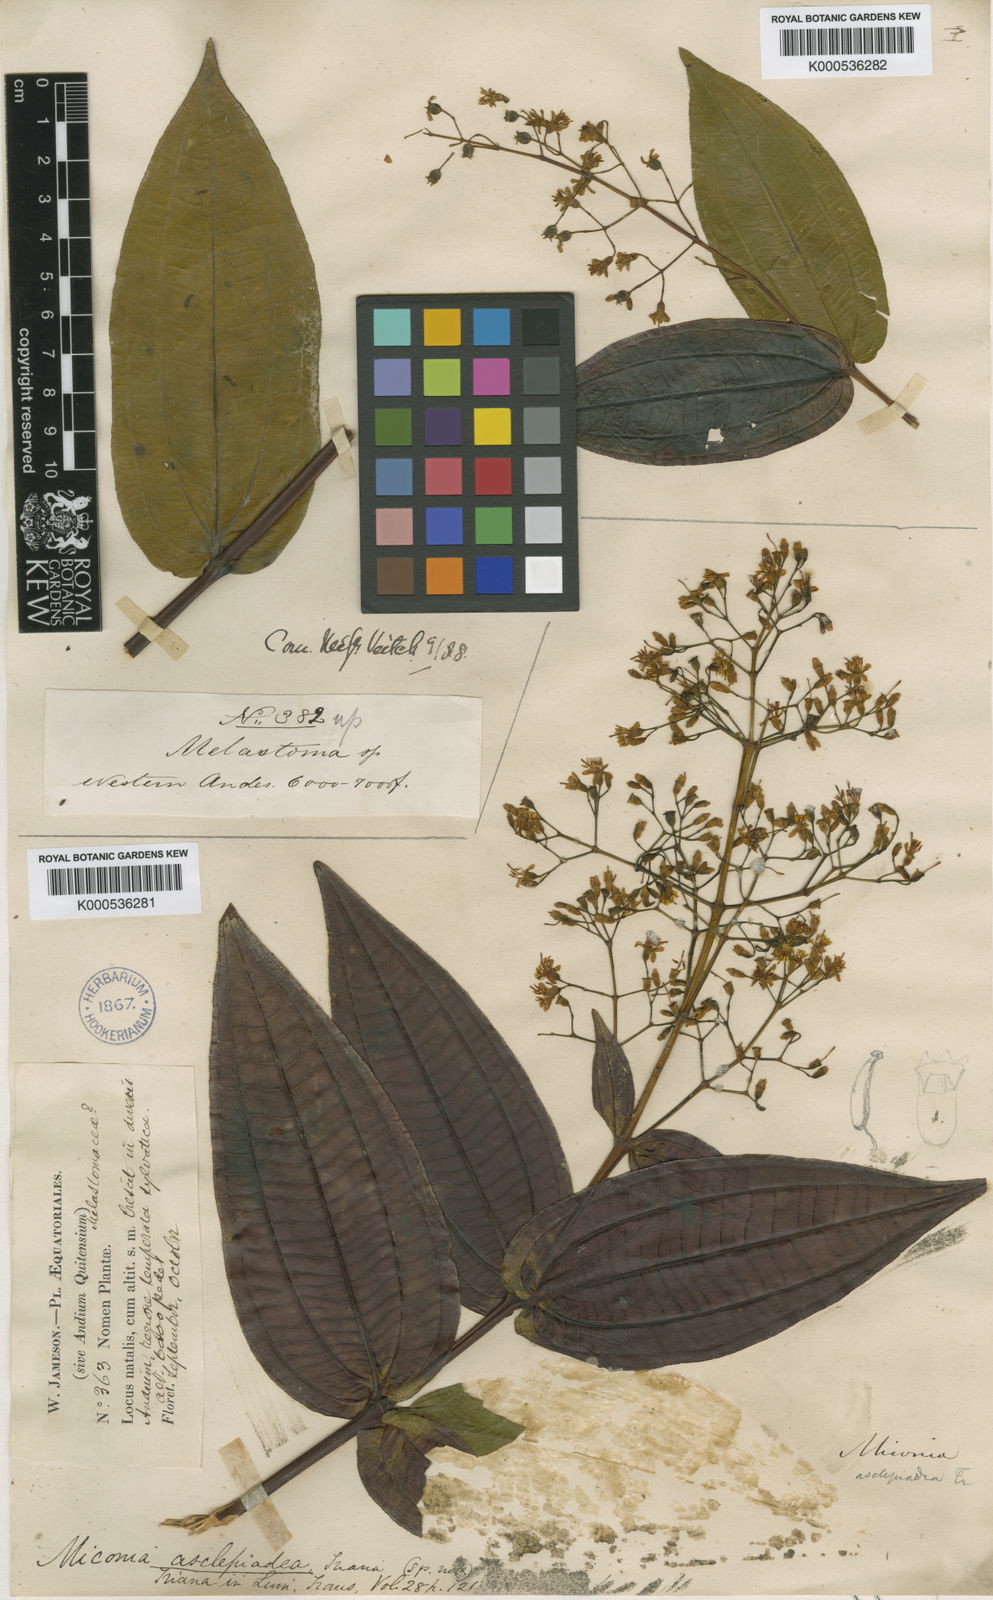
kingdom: Plantae
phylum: Tracheophyta
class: Magnoliopsida
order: Myrtales
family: Melastomataceae
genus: Miconia
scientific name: Miconia asclepiadea
